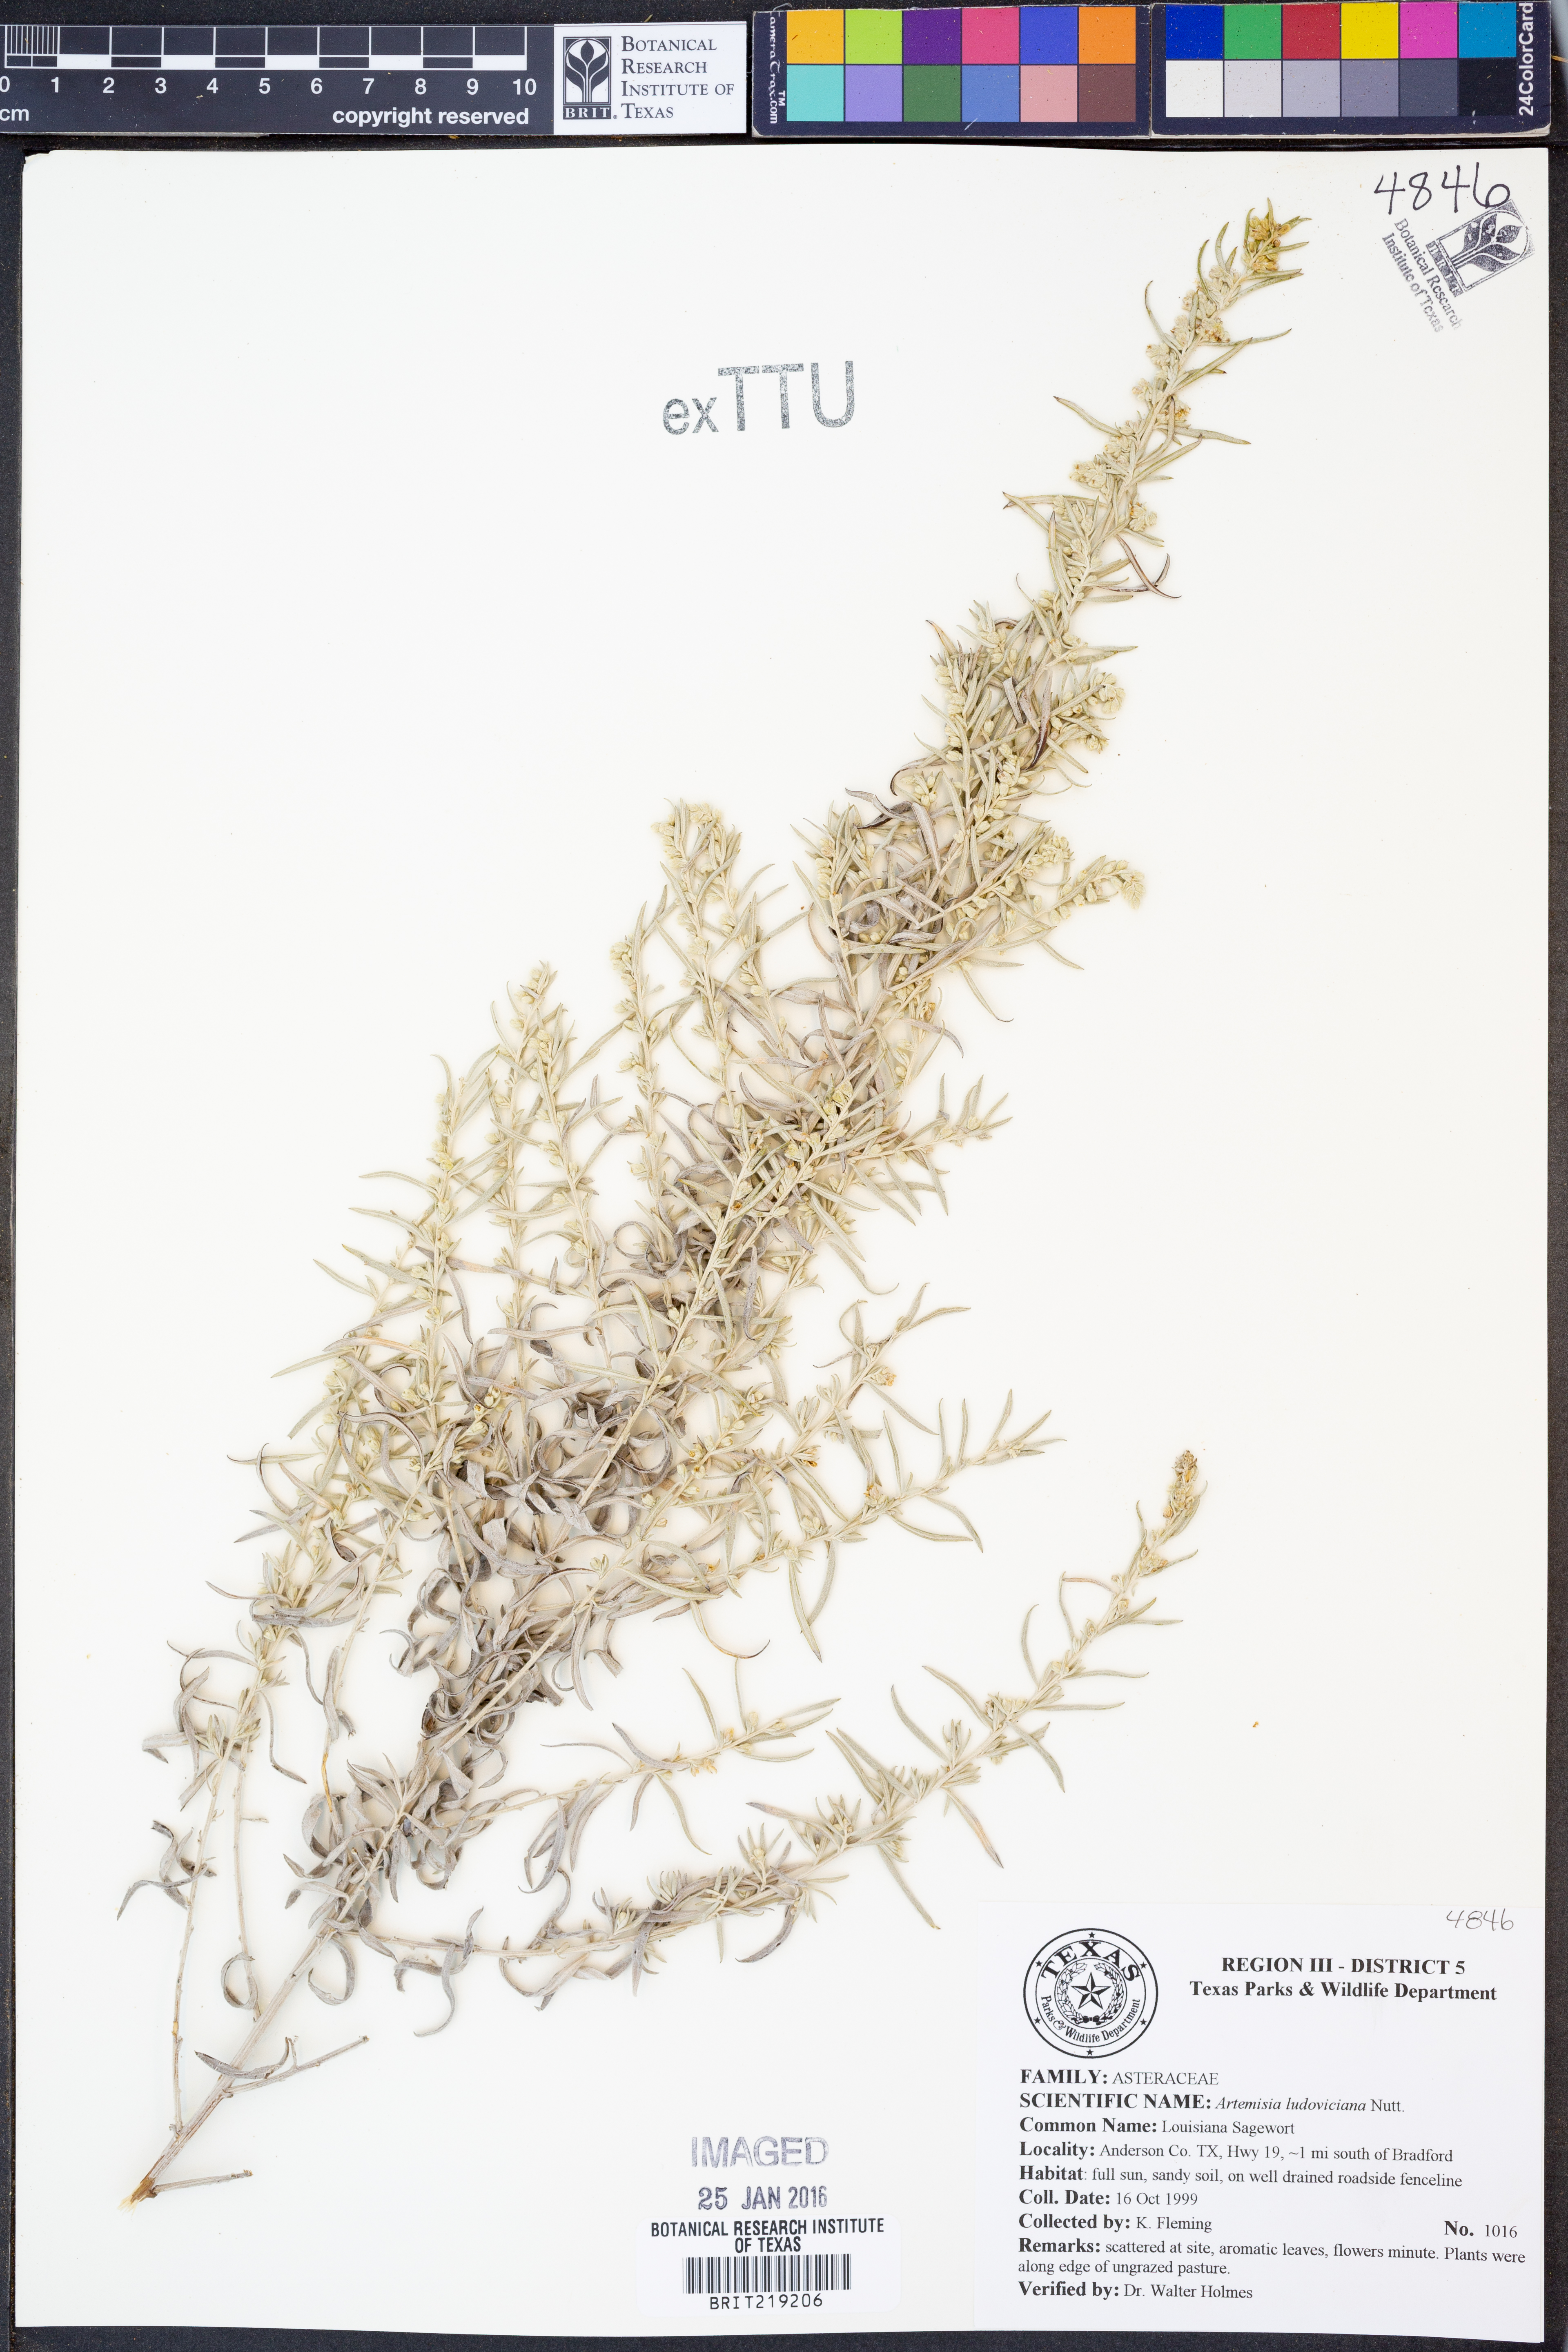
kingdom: Plantae
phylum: Tracheophyta
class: Magnoliopsida
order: Asterales
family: Asteraceae
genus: Artemisia
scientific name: Artemisia ludoviciana
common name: Western mugwort
